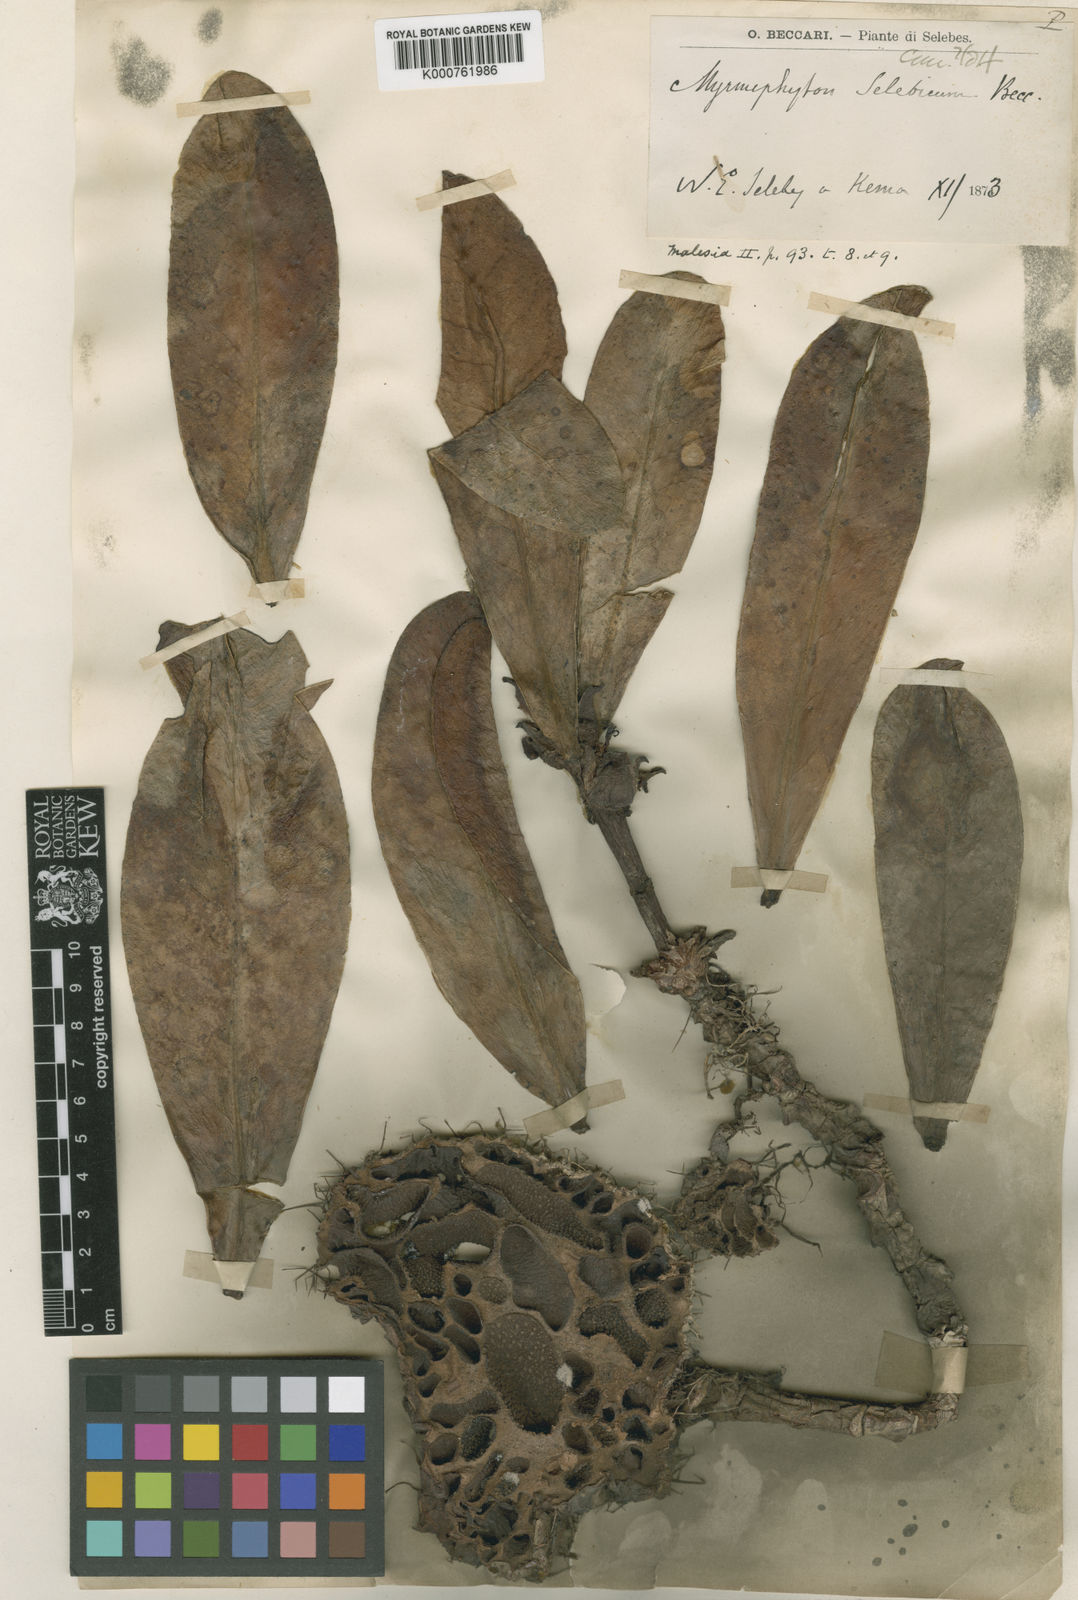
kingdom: Plantae
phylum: Tracheophyta
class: Magnoliopsida
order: Gentianales
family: Rubiaceae
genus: Myrmephytum
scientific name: Myrmephytum selebicum
